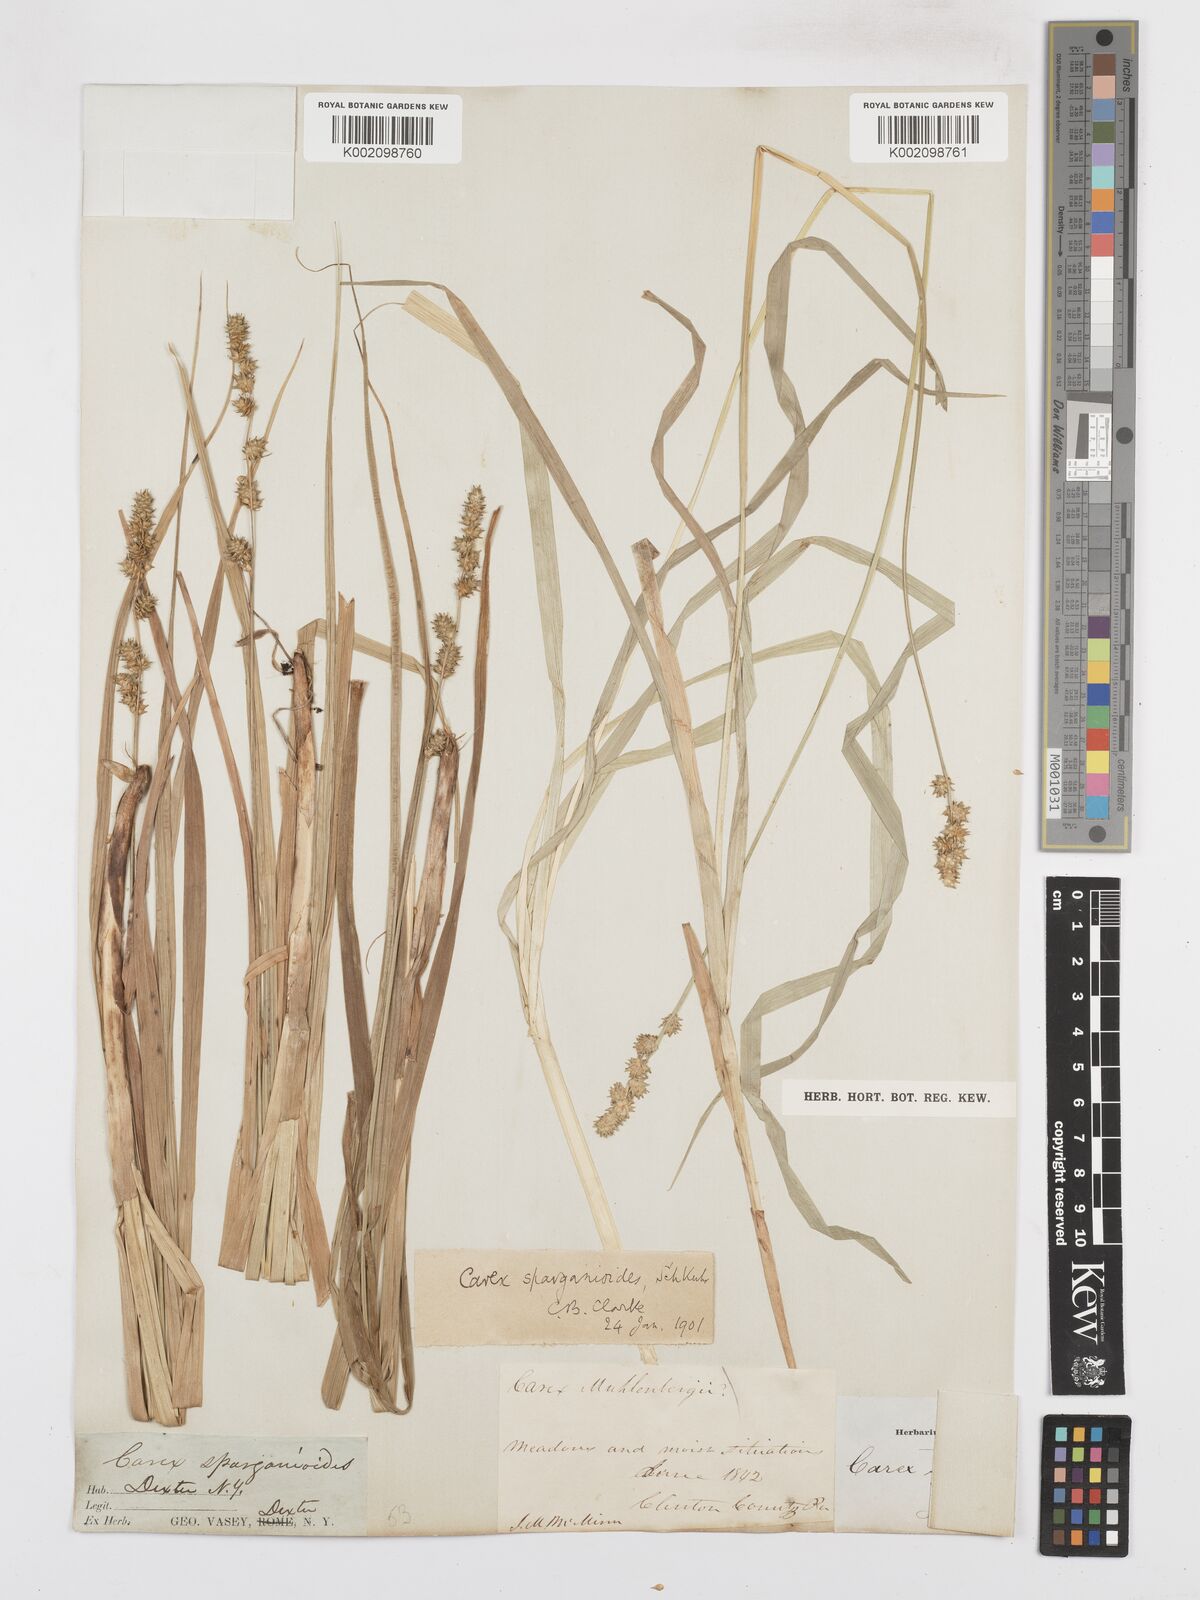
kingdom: Plantae
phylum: Tracheophyta
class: Liliopsida
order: Poales
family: Cyperaceae
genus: Carex
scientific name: Carex sparganioides
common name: Burreed sedge
